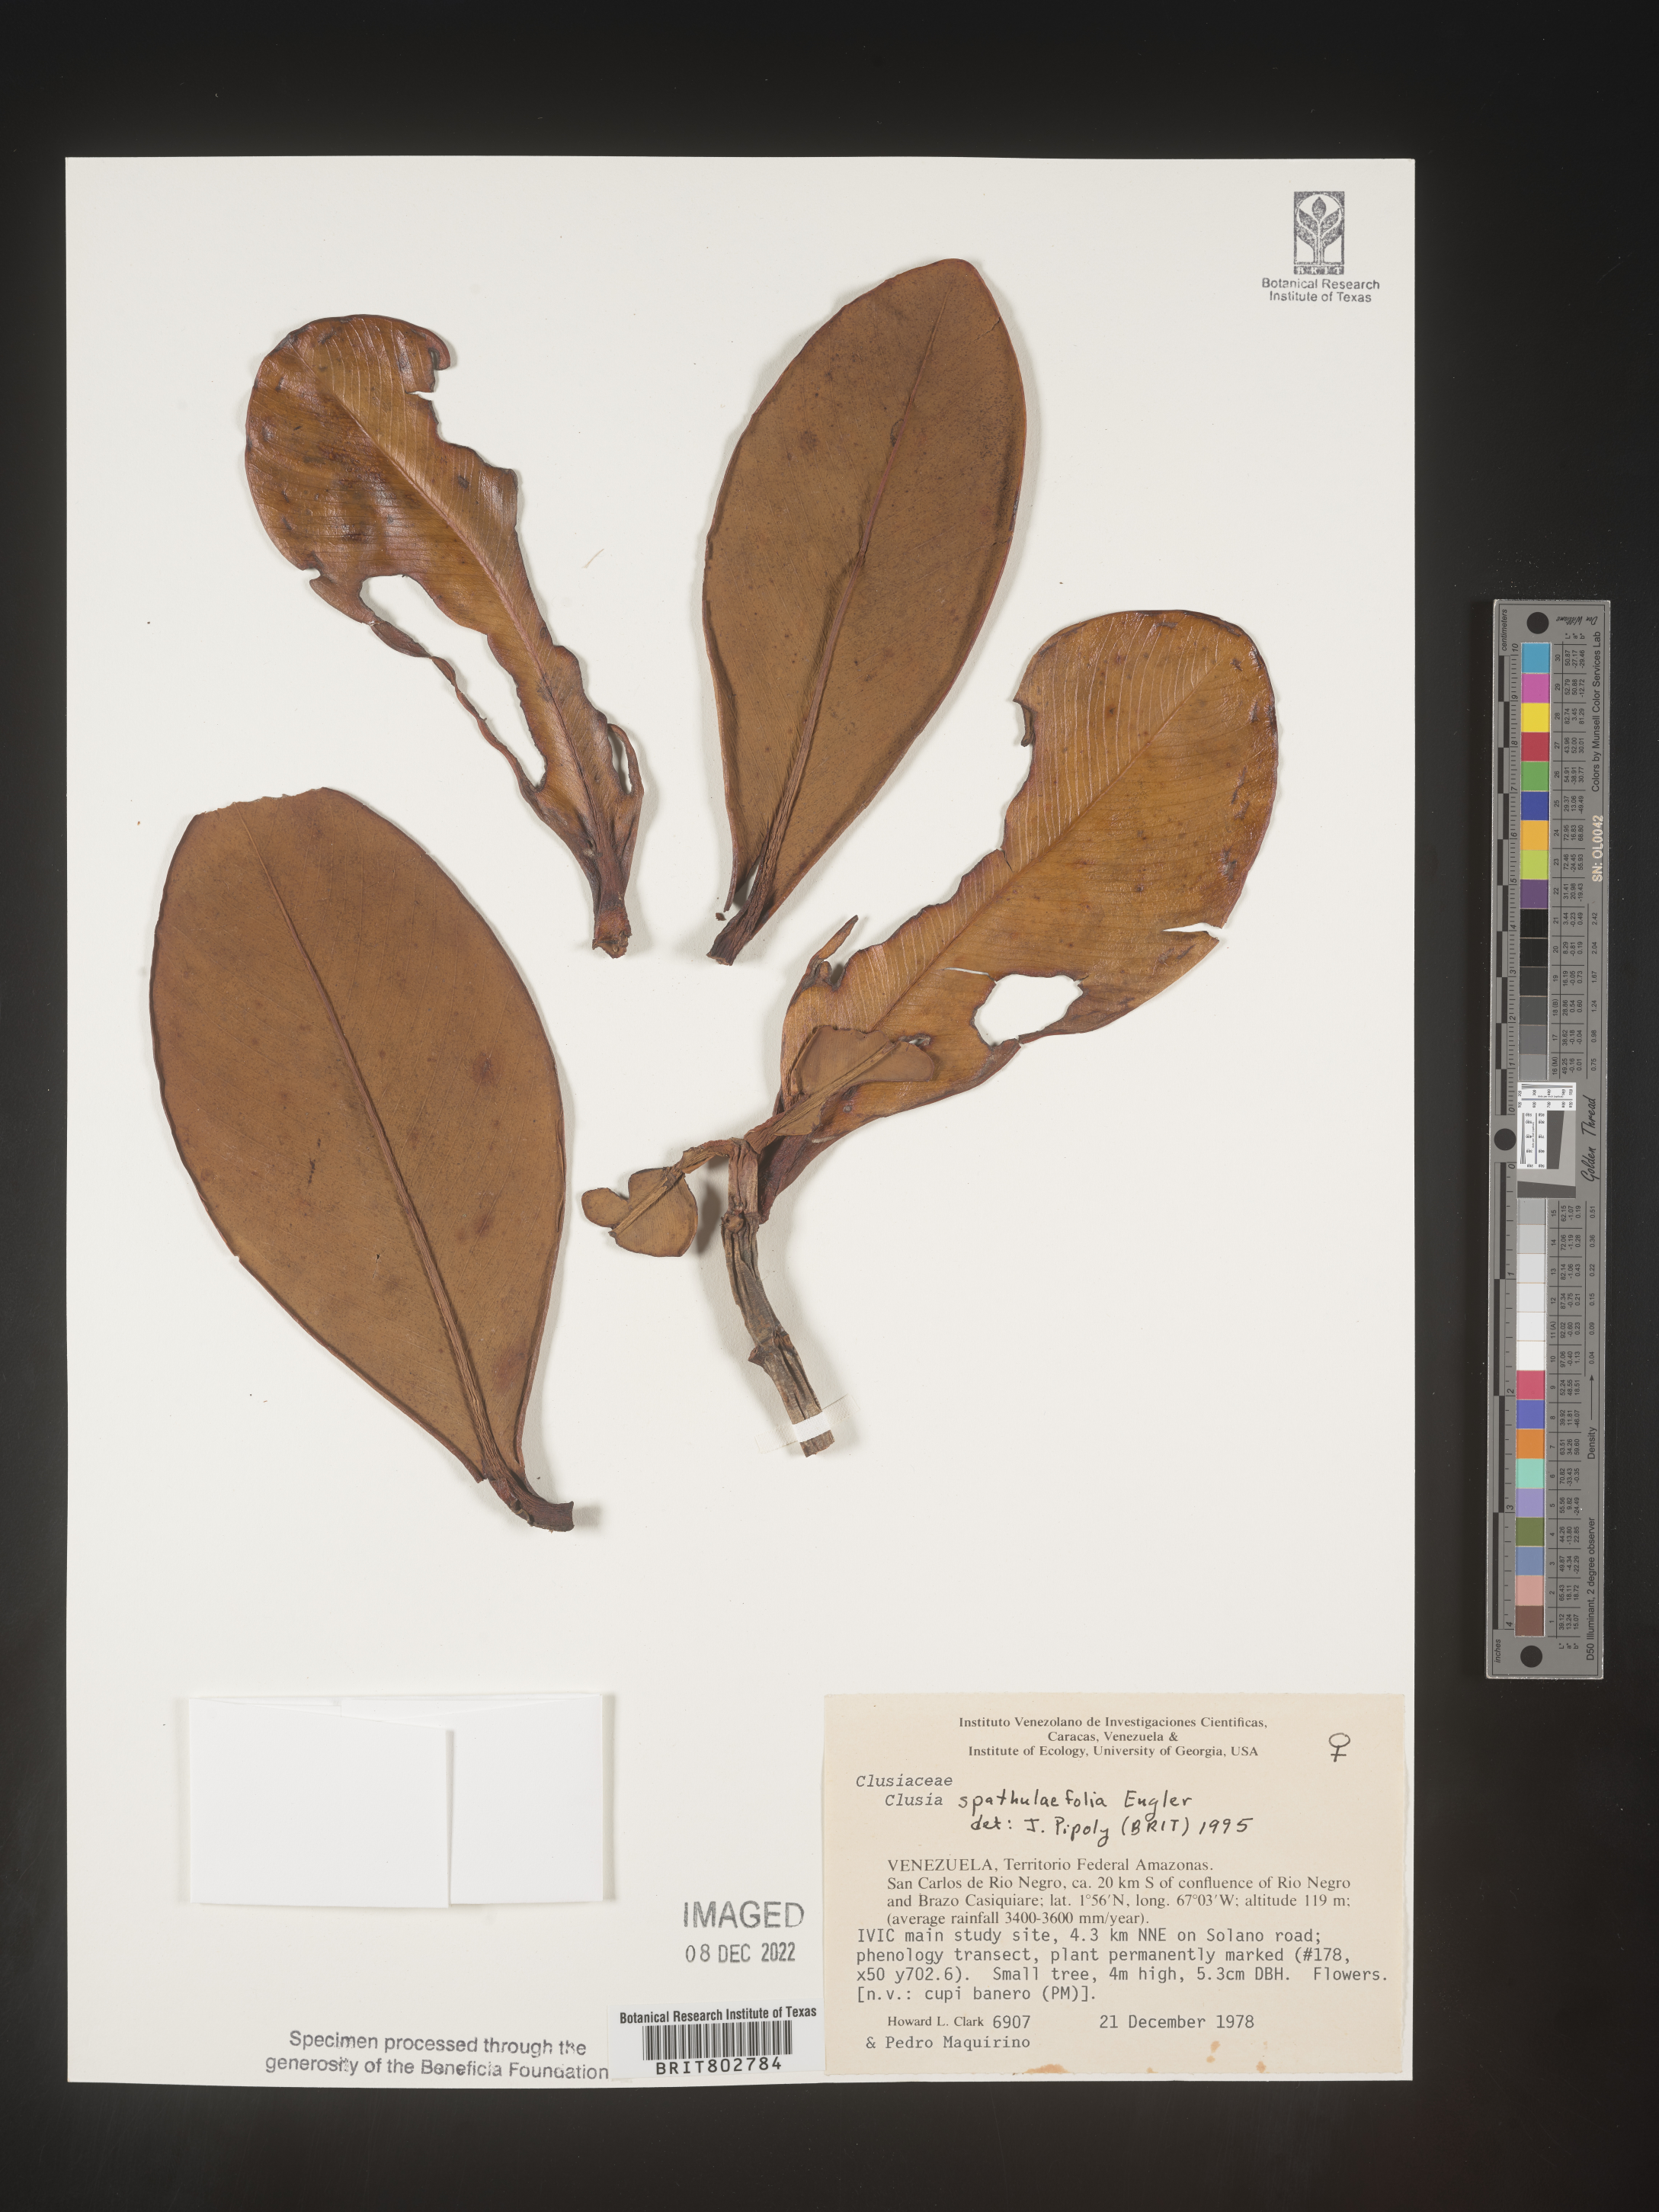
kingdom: Plantae
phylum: Tracheophyta
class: Magnoliopsida
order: Malpighiales
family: Clusiaceae
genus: Clusia
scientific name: Clusia spathulifolia
